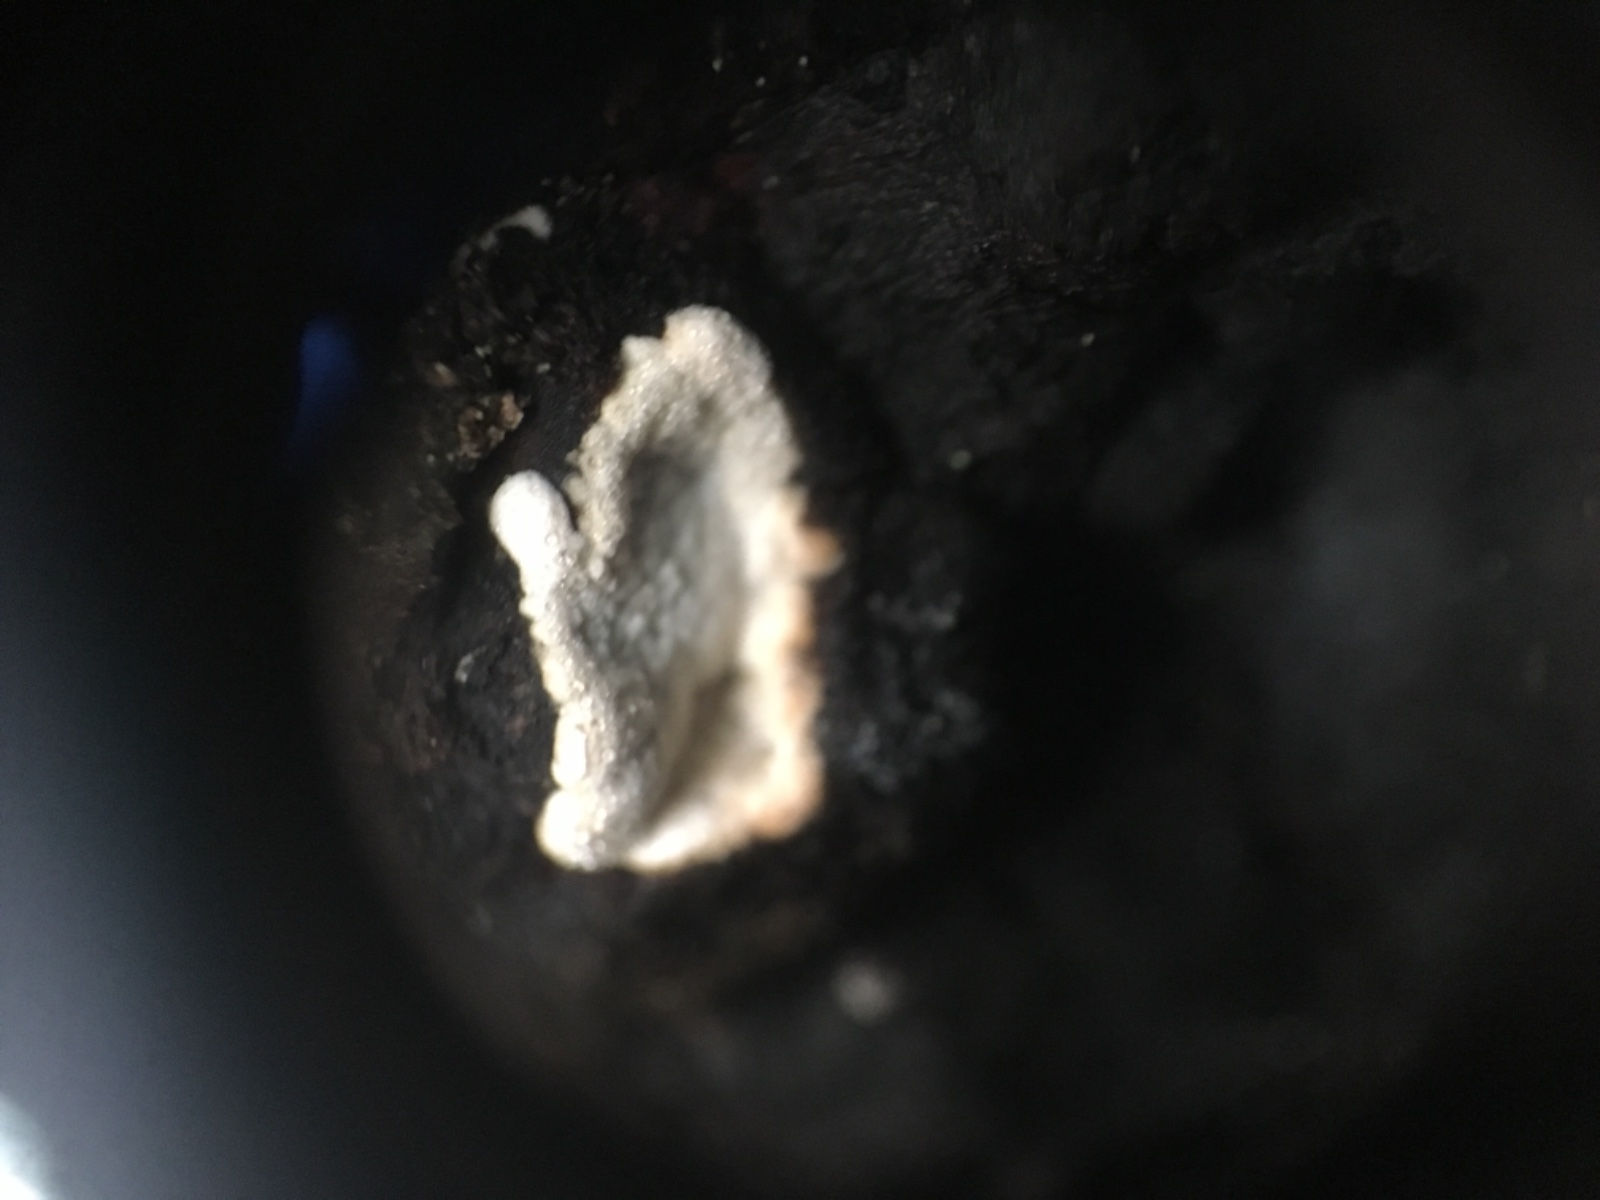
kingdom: Fungi
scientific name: Fungi
